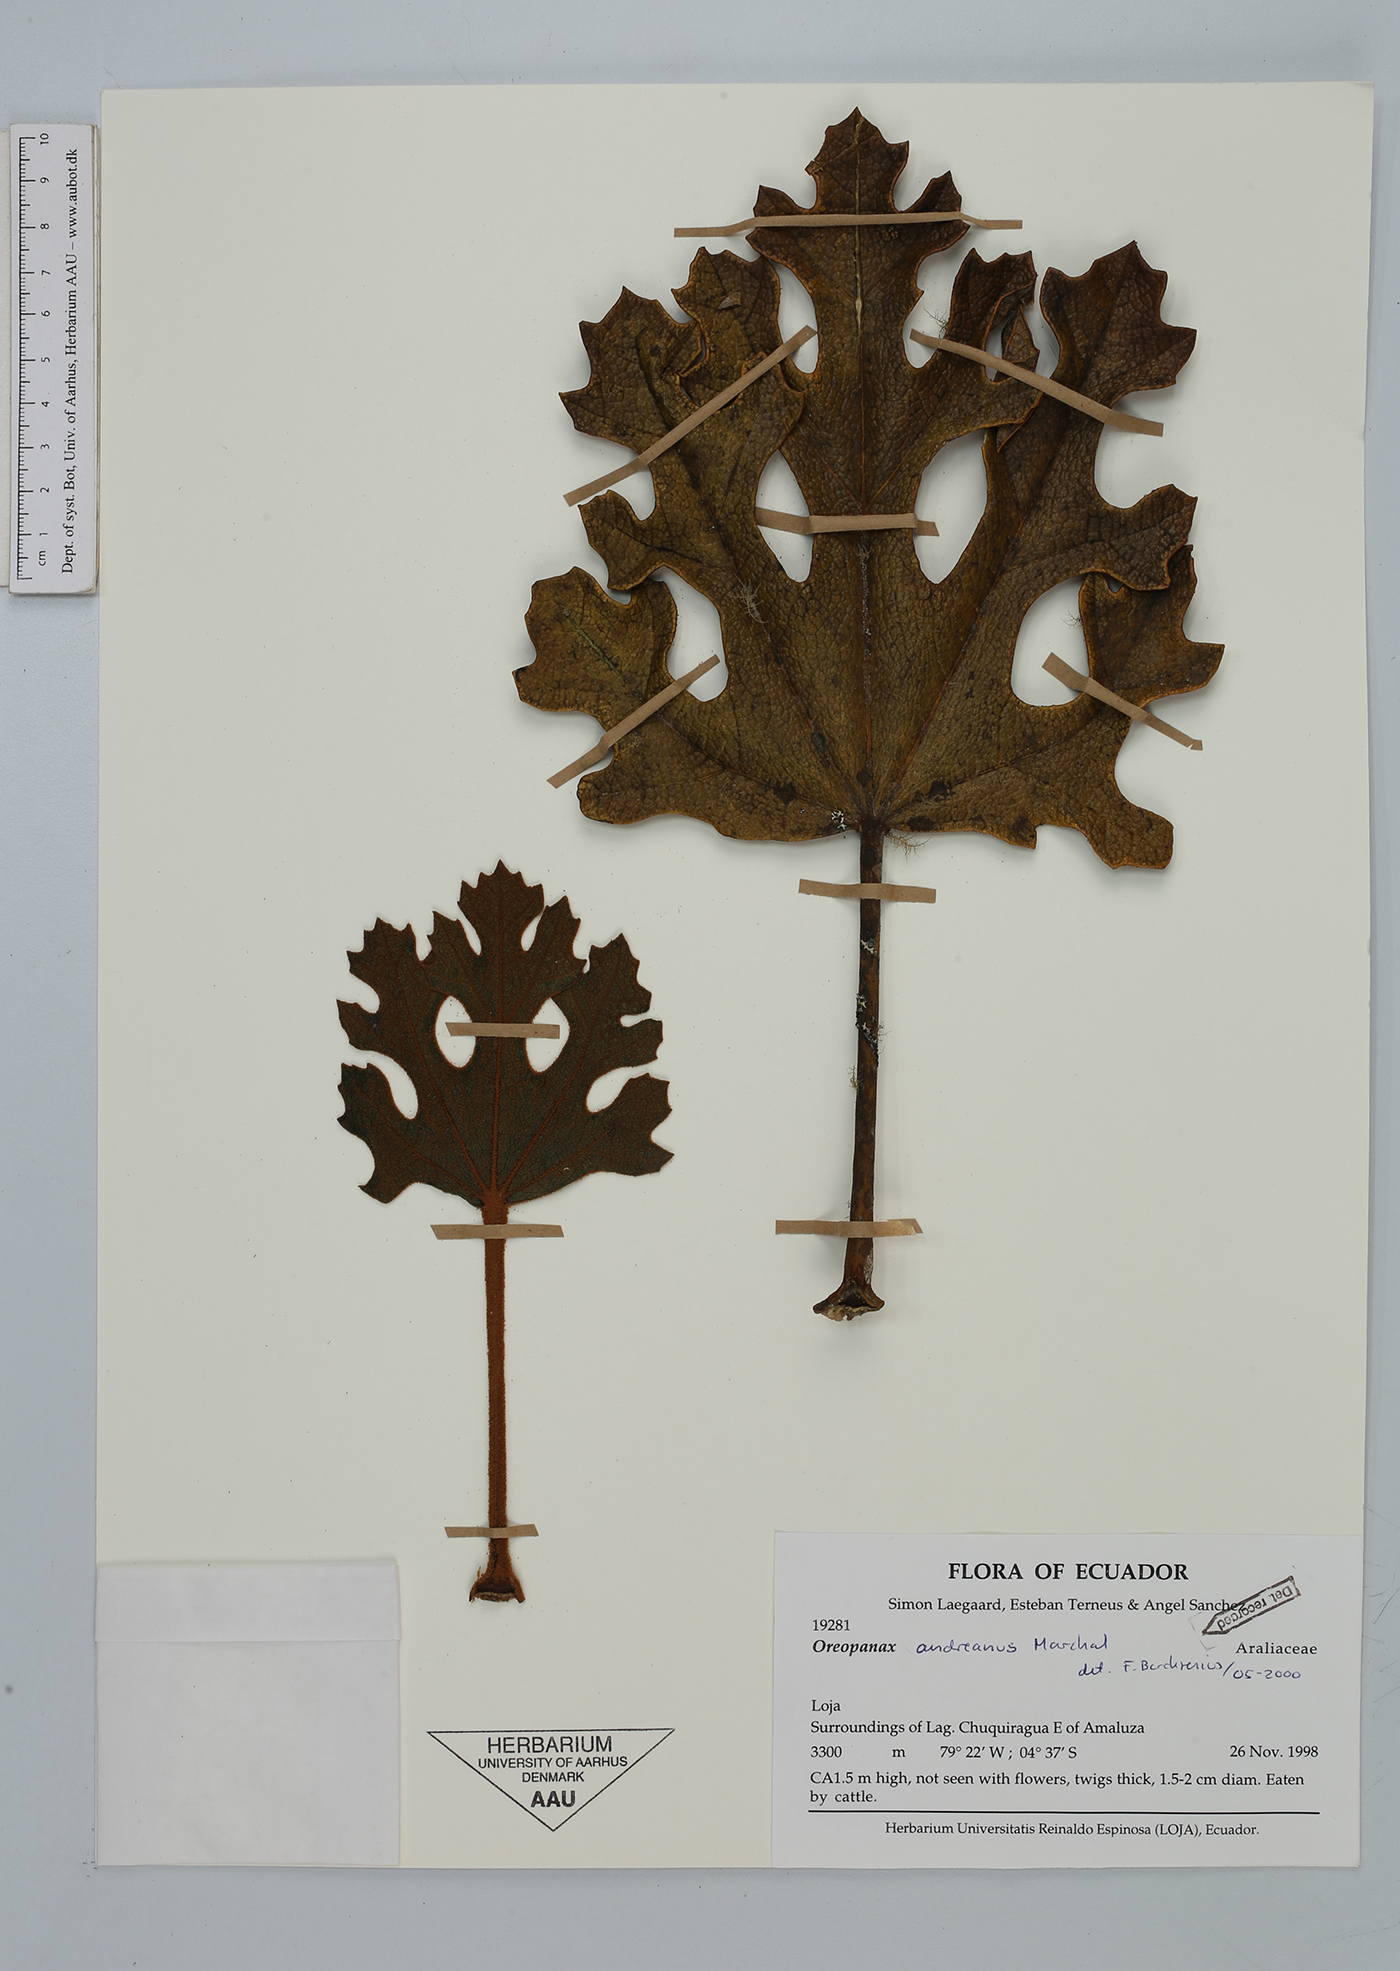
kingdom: Plantae
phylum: Tracheophyta
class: Magnoliopsida
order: Apiales
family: Araliaceae
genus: Oreopanax
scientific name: Oreopanax andreanus
